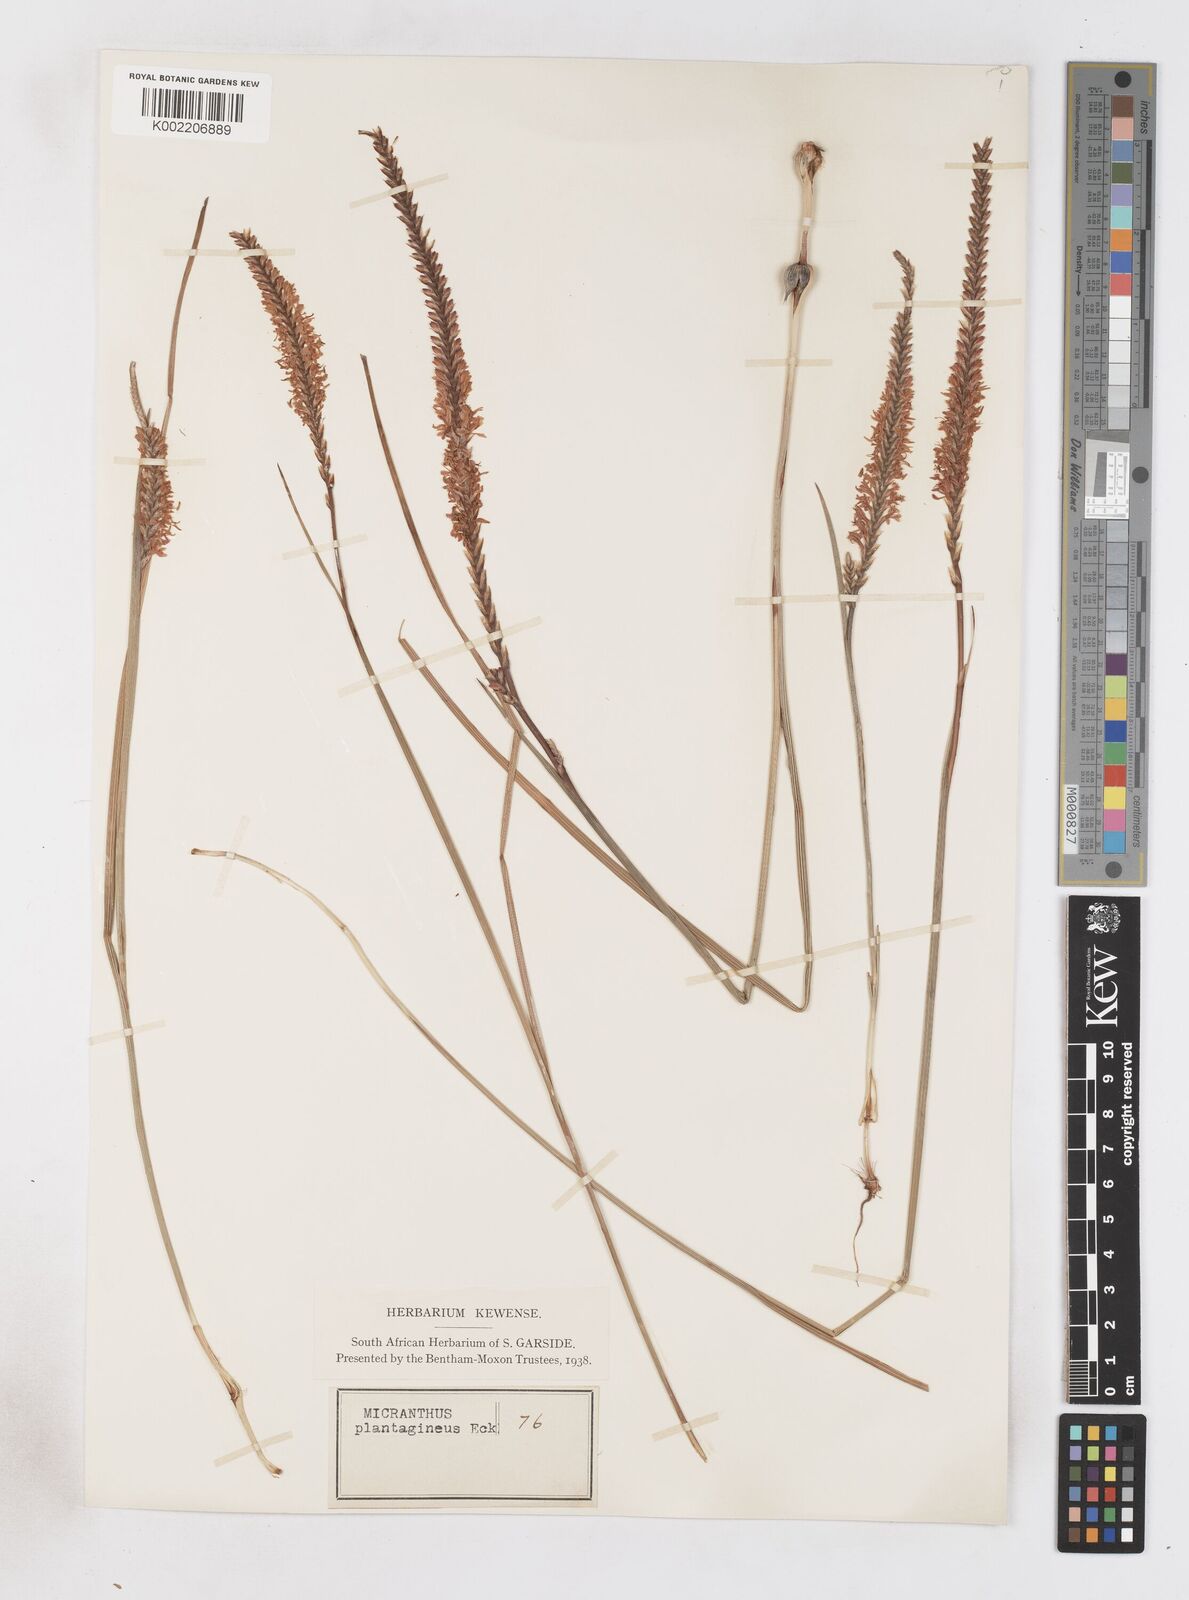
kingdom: Plantae
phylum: Tracheophyta
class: Liliopsida
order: Asparagales
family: Iridaceae
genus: Micranthus
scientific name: Micranthus plantagineus
